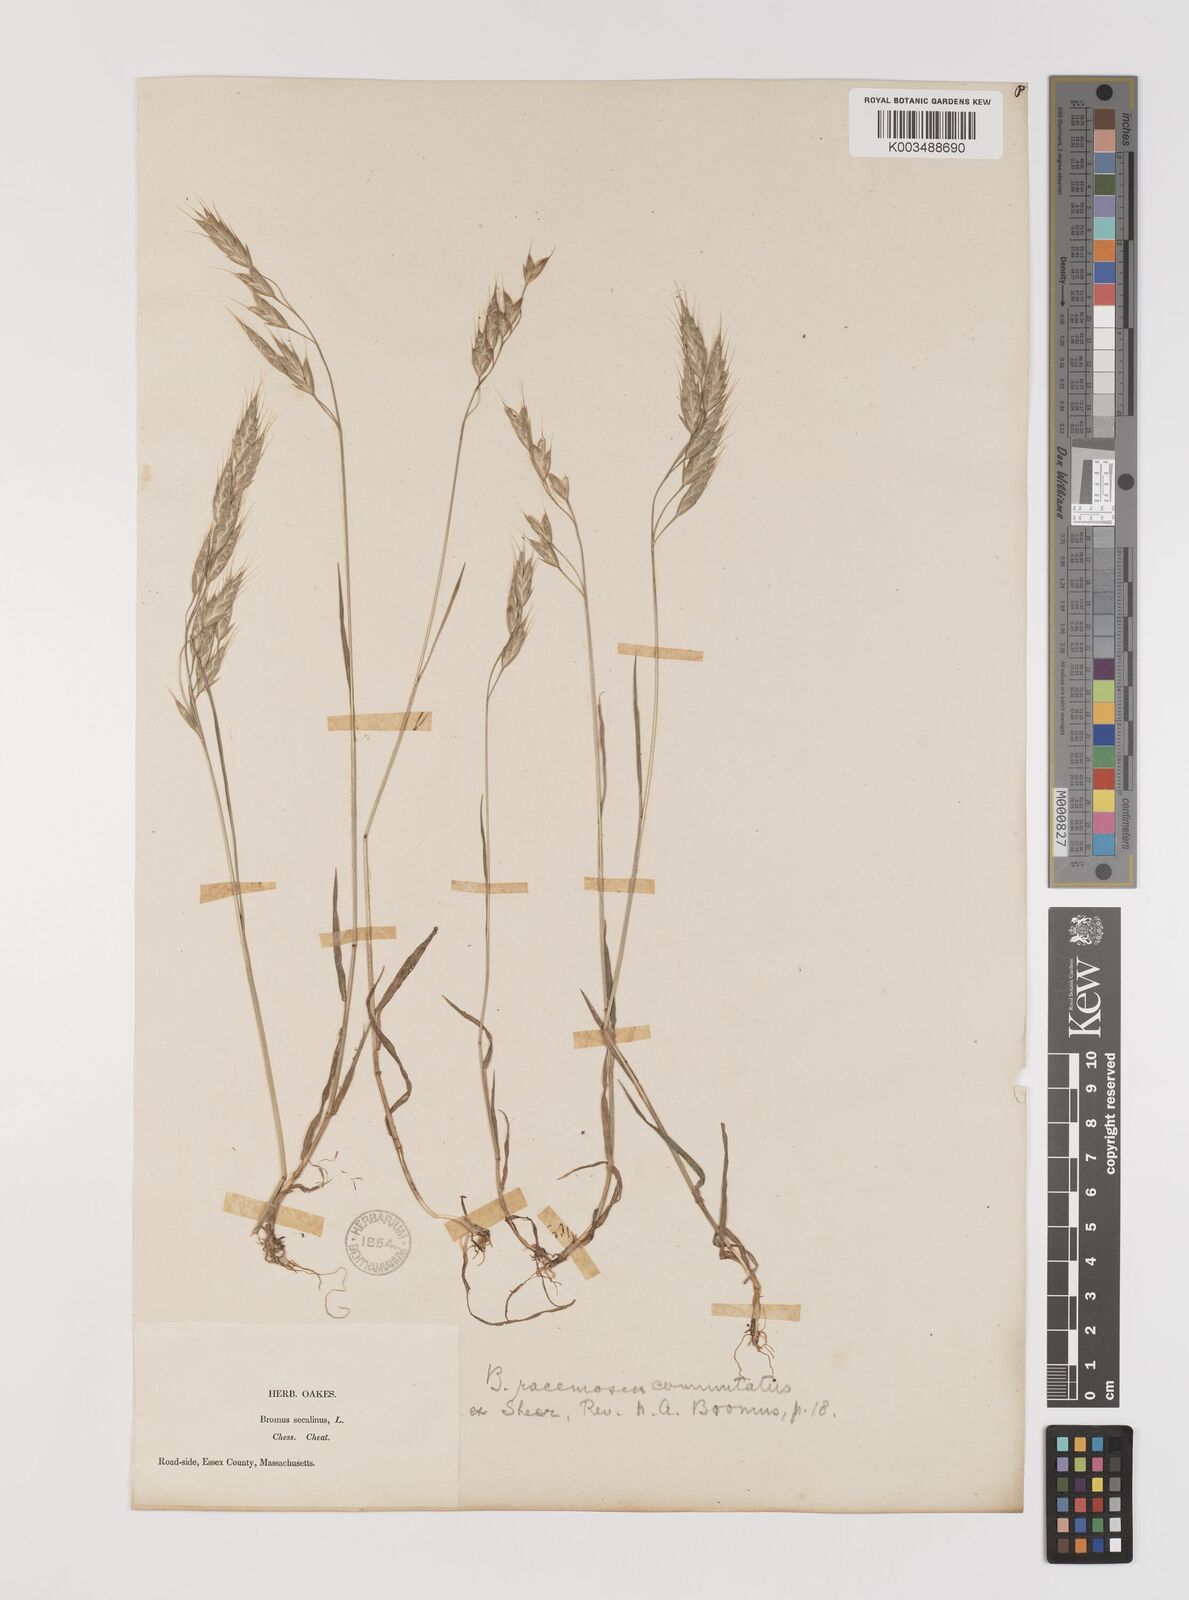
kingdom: Plantae
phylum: Tracheophyta
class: Liliopsida
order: Poales
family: Poaceae
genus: Bromus
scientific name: Bromus racemosus
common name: Bald brome
